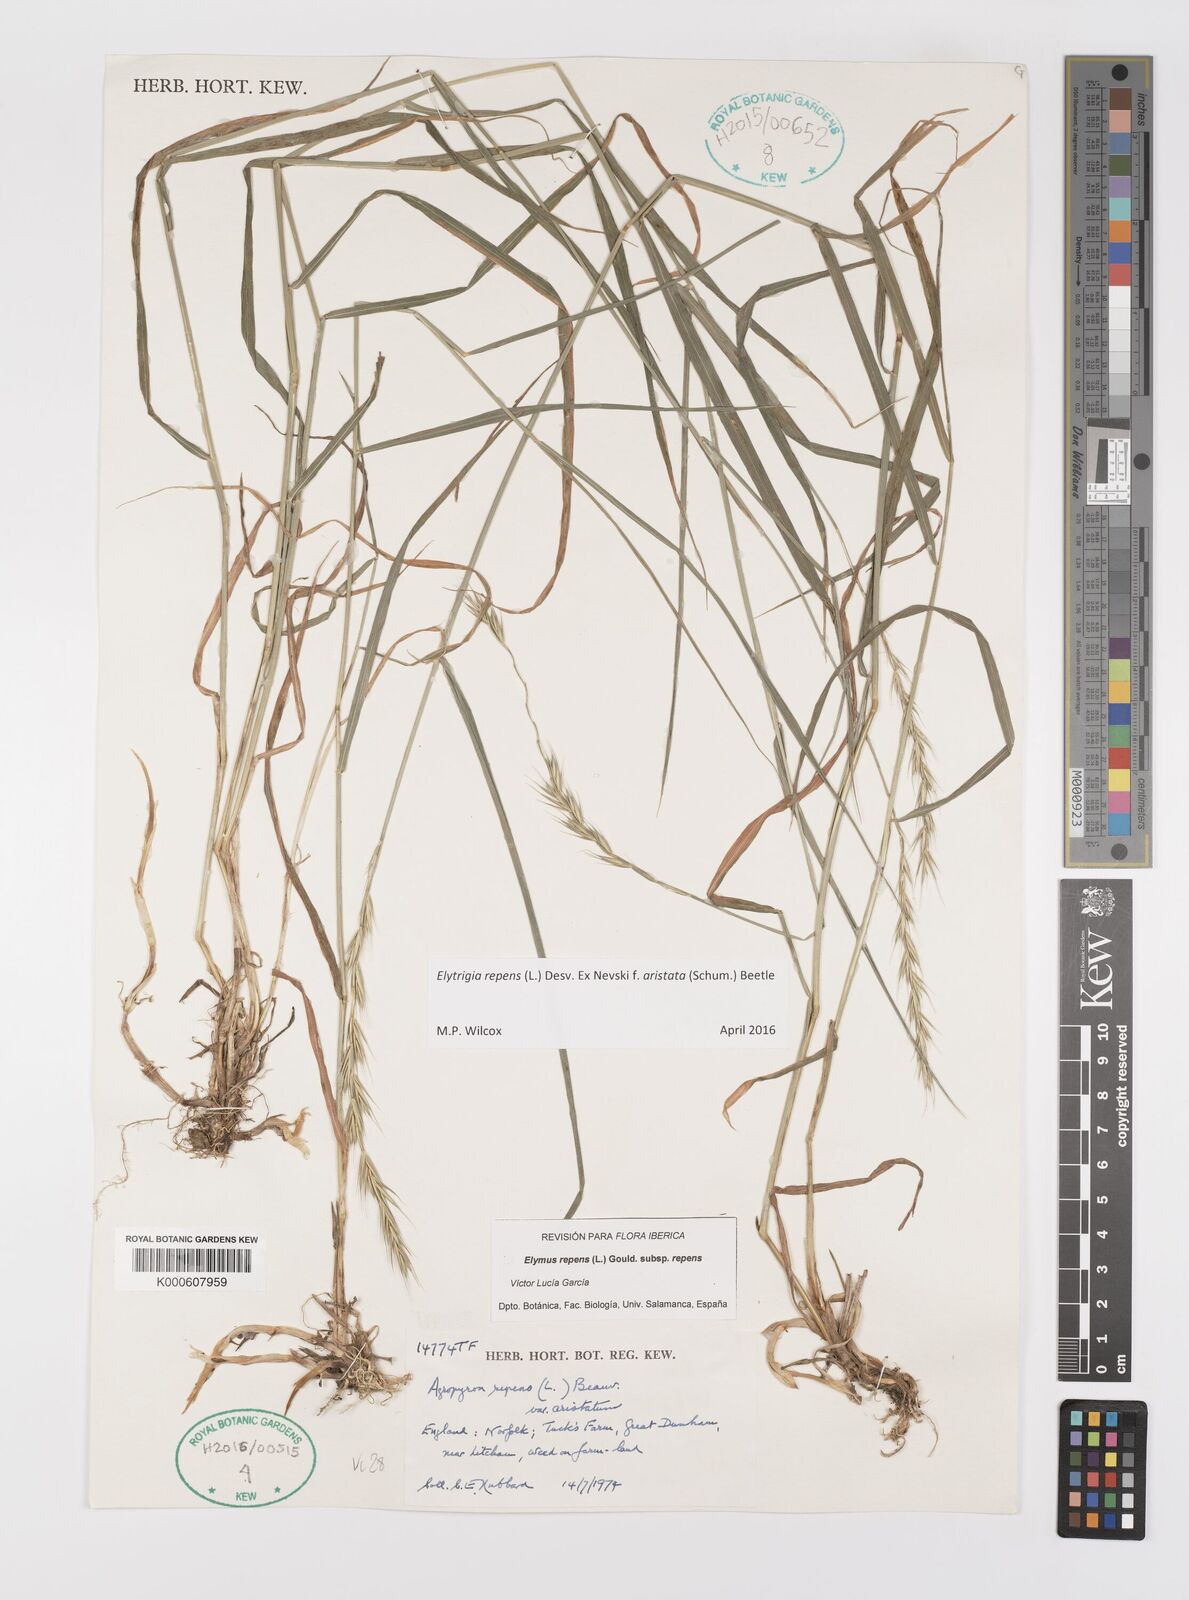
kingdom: Plantae
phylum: Tracheophyta
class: Liliopsida
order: Poales
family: Poaceae
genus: Elymus
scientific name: Elymus repens
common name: Quackgrass
